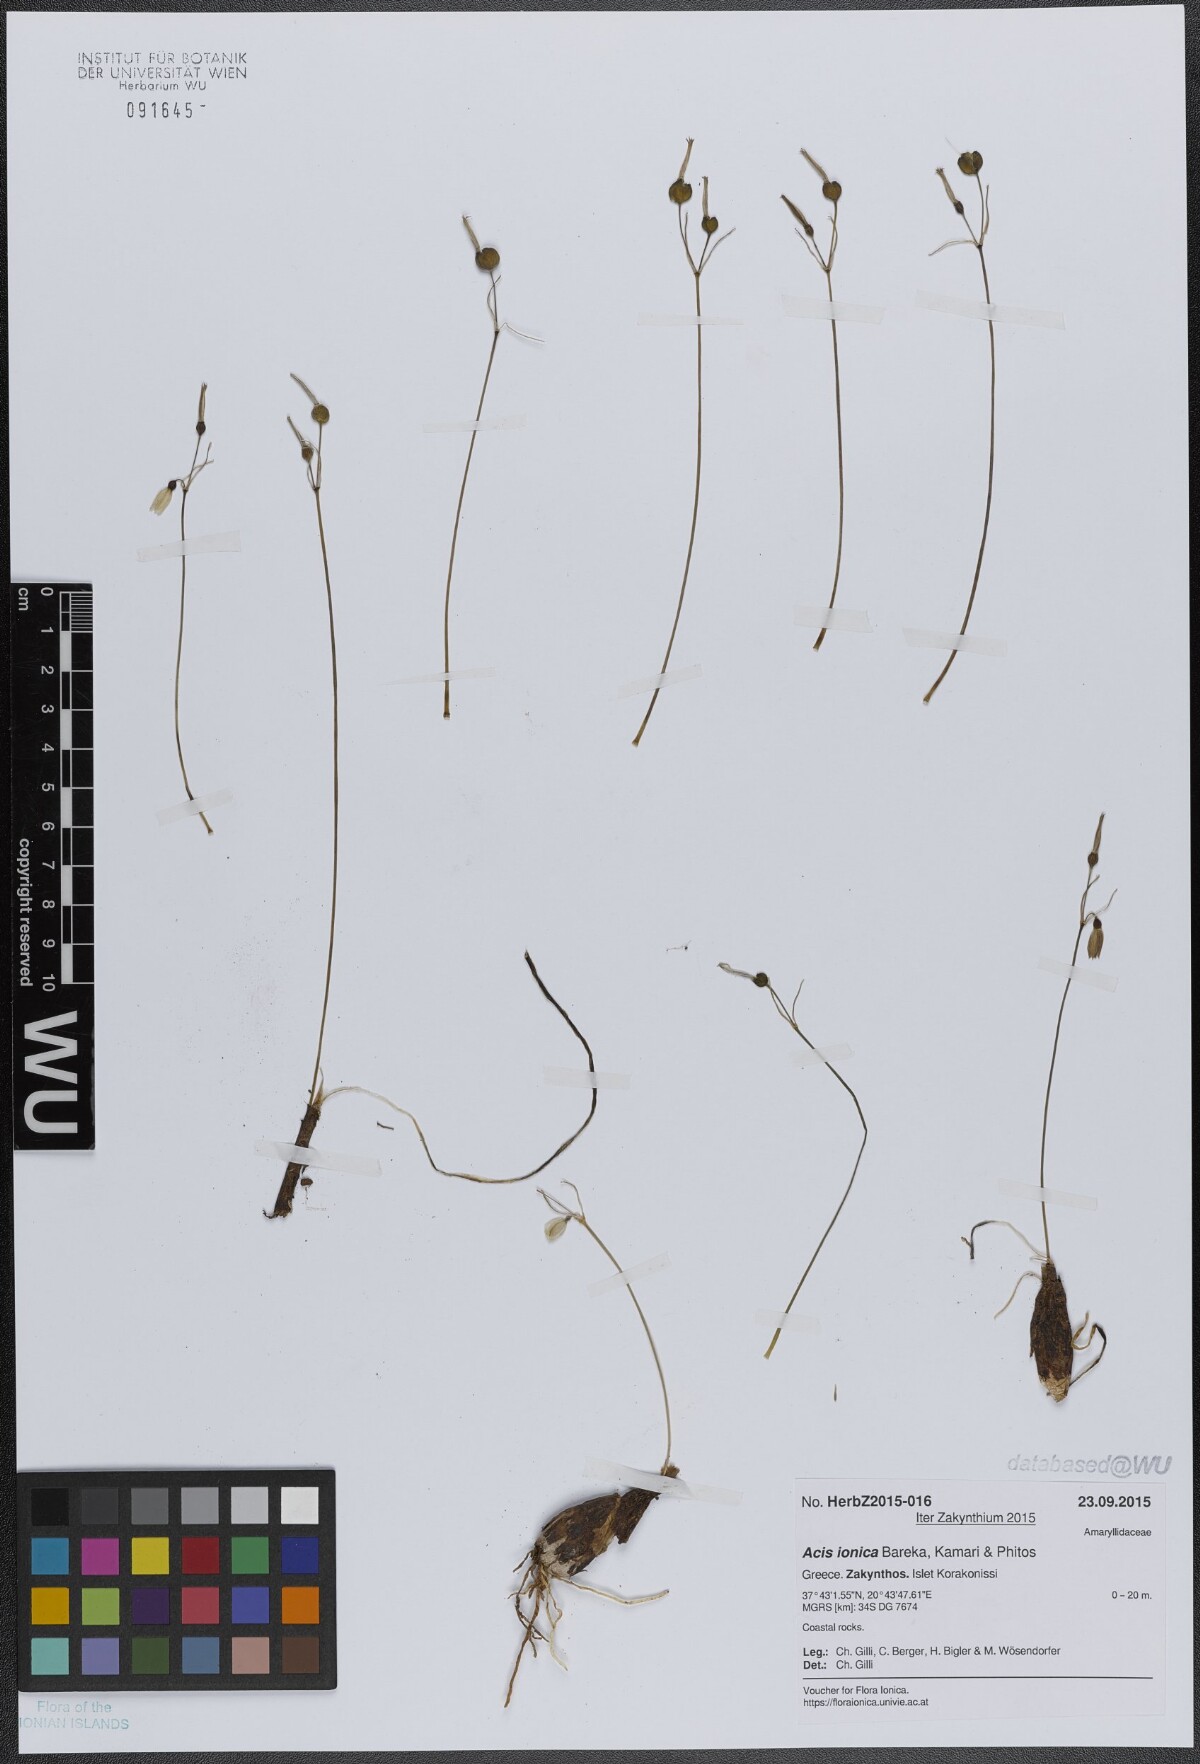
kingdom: Plantae
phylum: Tracheophyta
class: Liliopsida
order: Asparagales
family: Amaryllidaceae
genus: Acis
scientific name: Acis ionica
